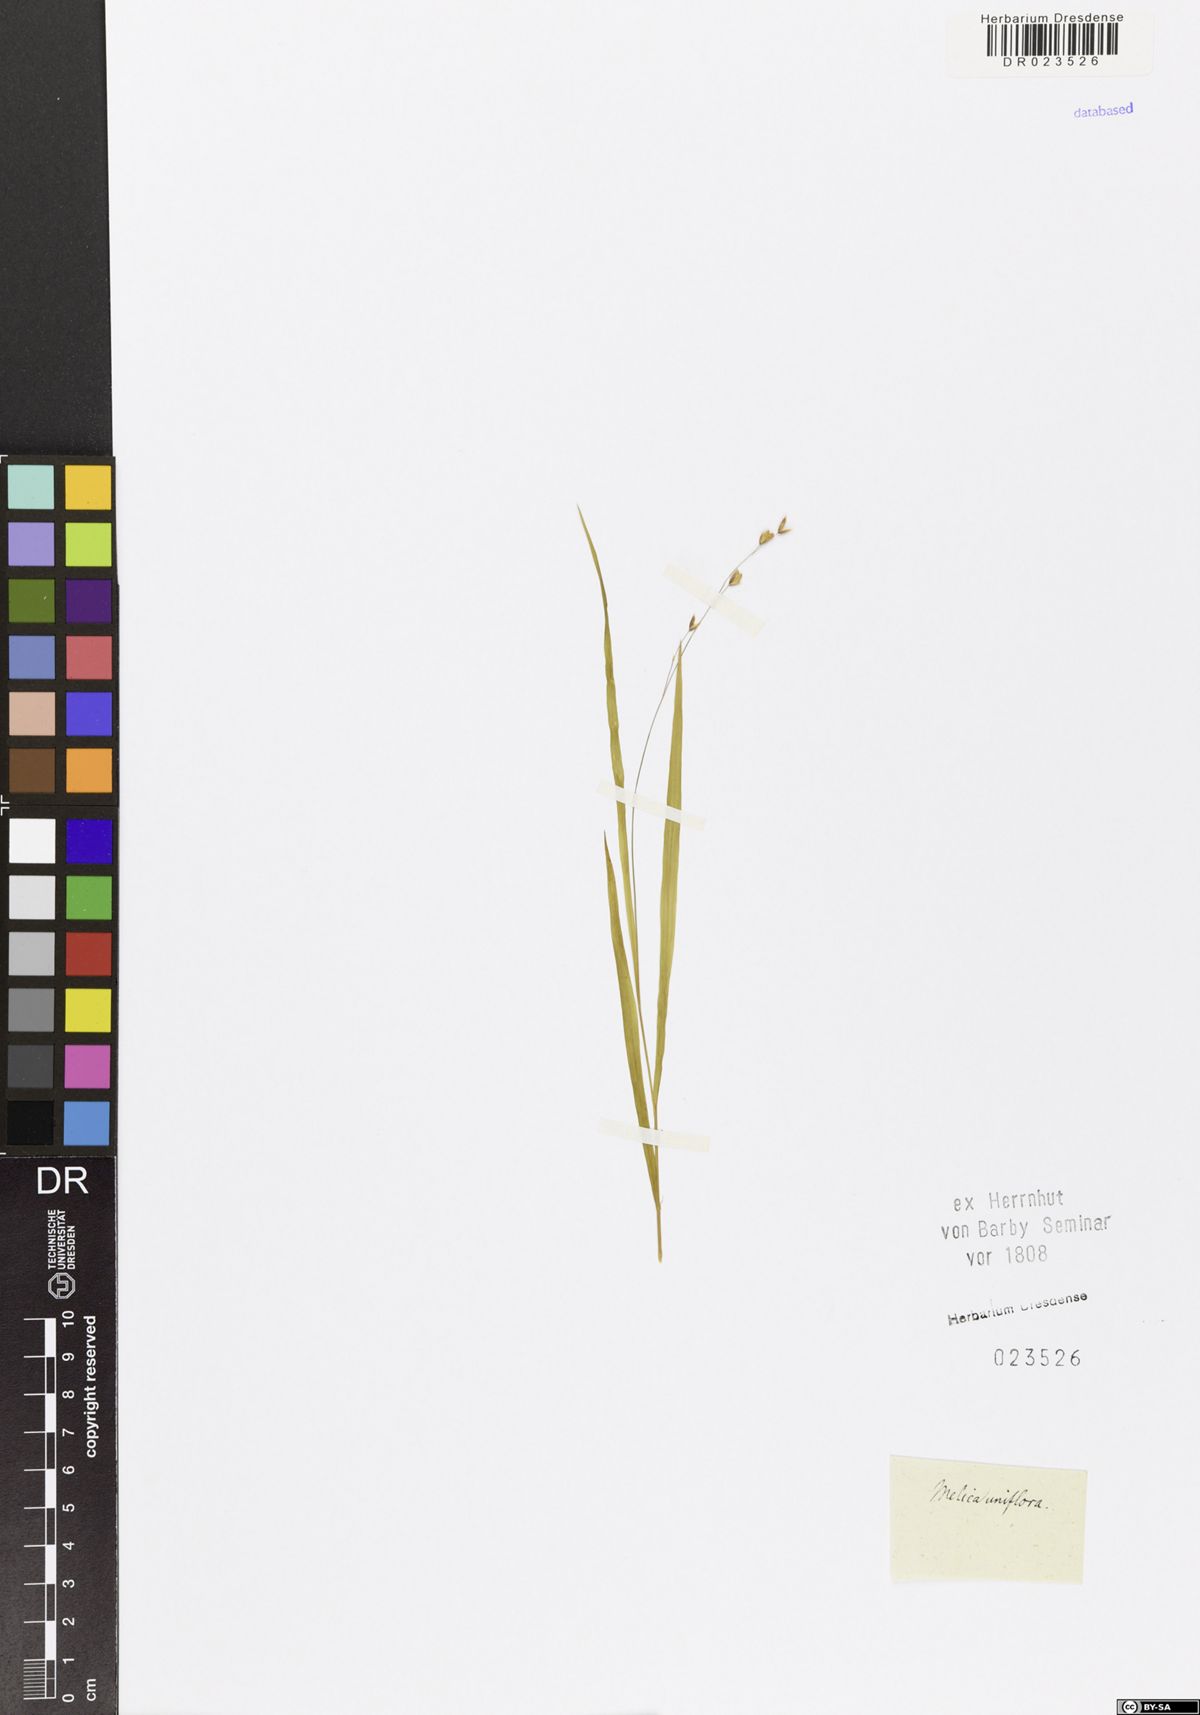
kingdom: Plantae
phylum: Tracheophyta
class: Liliopsida
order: Poales
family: Poaceae
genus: Melica
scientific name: Melica uniflora
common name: Wood melick
